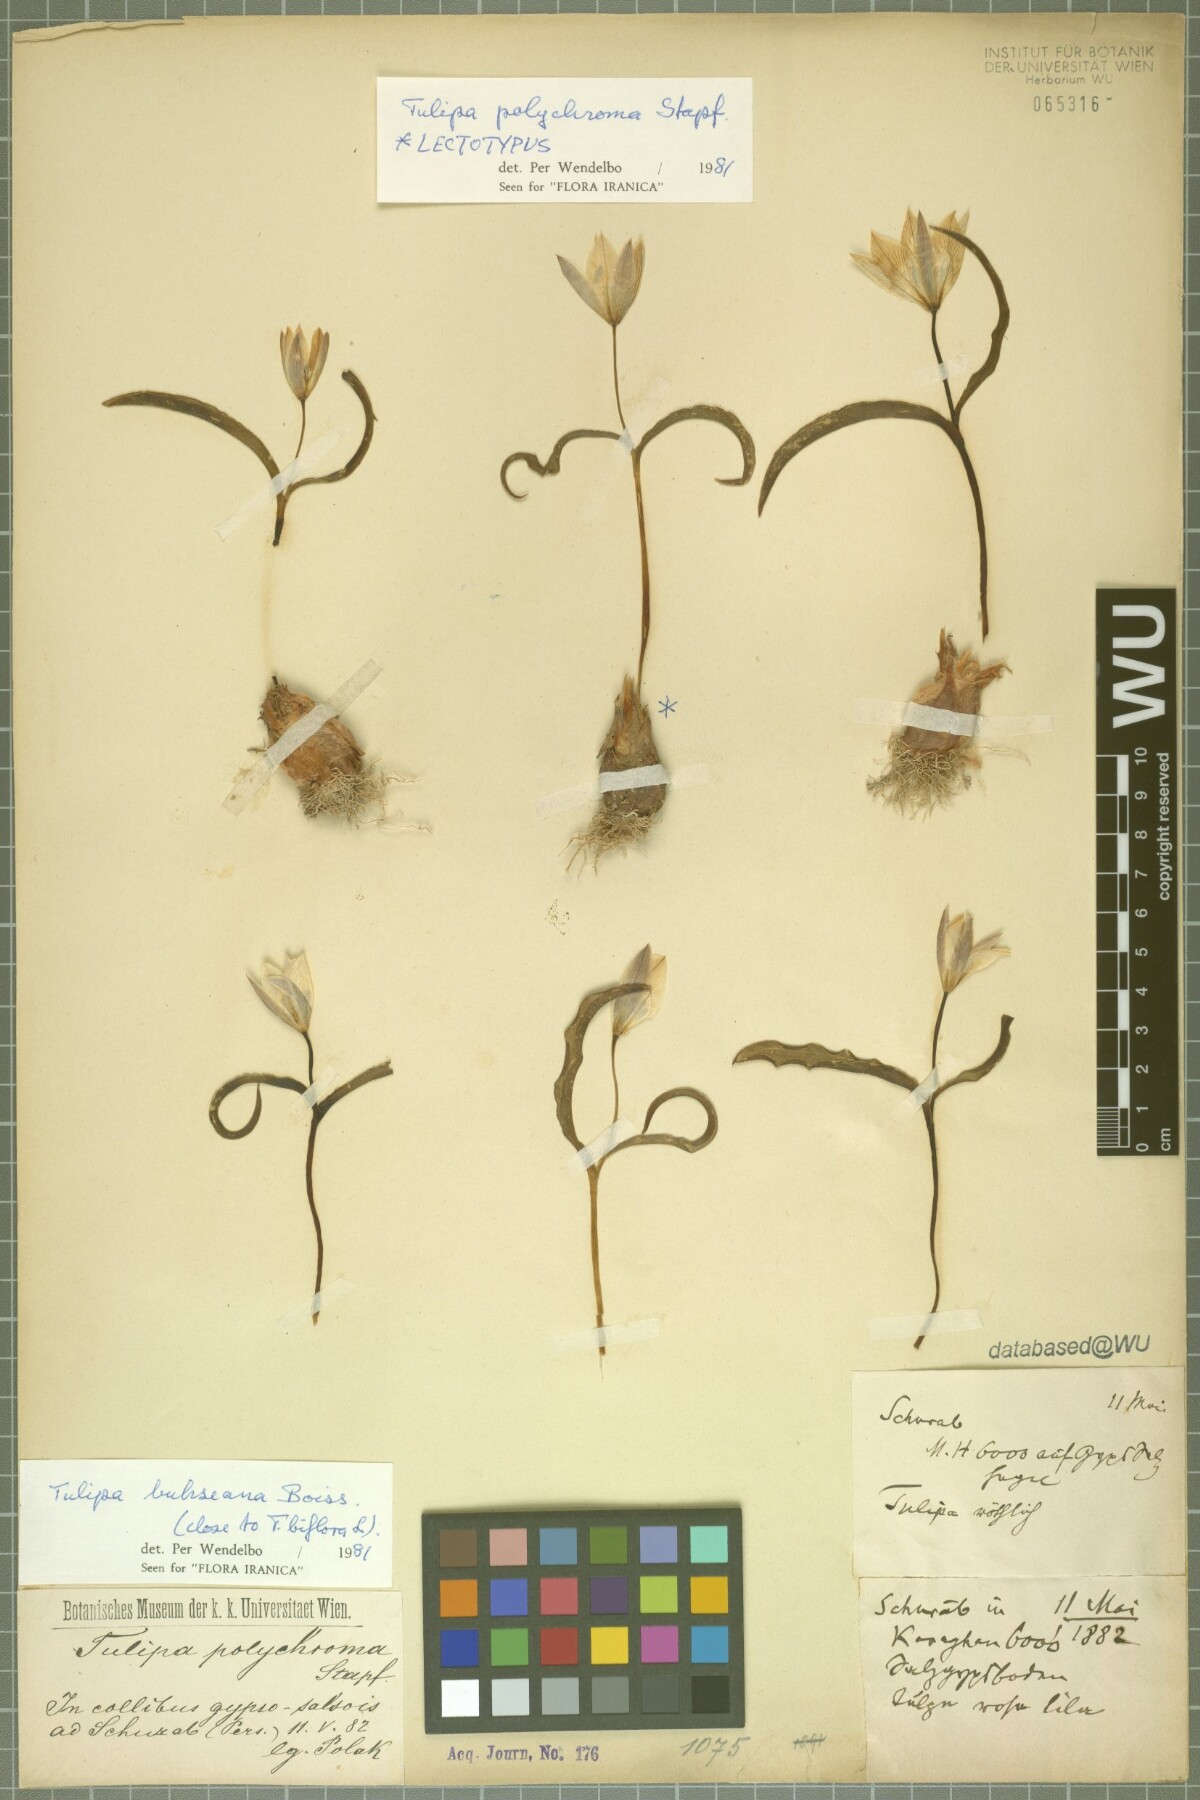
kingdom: Plantae
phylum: Tracheophyta
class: Liliopsida
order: Liliales
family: Liliaceae
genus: Tulipa
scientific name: Tulipa biflora
